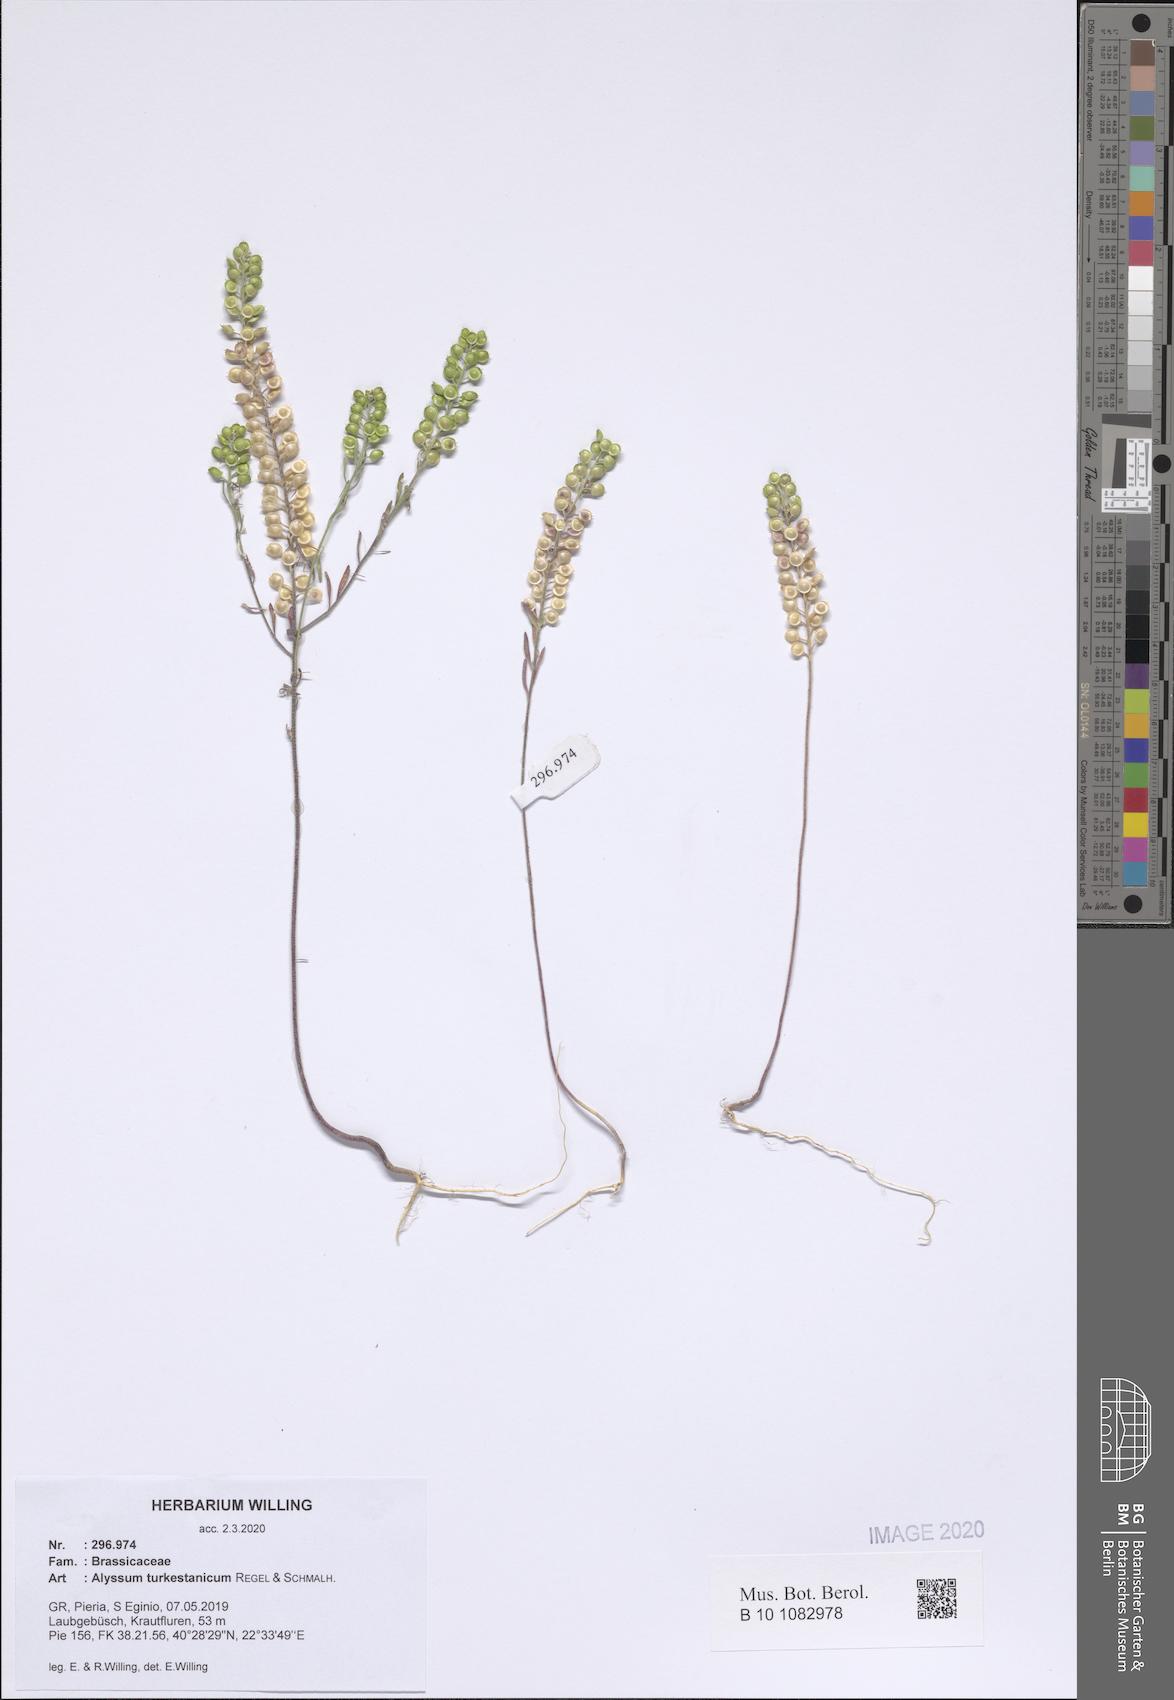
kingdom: Plantae
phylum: Tracheophyta
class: Magnoliopsida
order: Brassicales
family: Brassicaceae
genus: Alyssum
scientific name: Alyssum turkestanicum
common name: Desert alyssum
